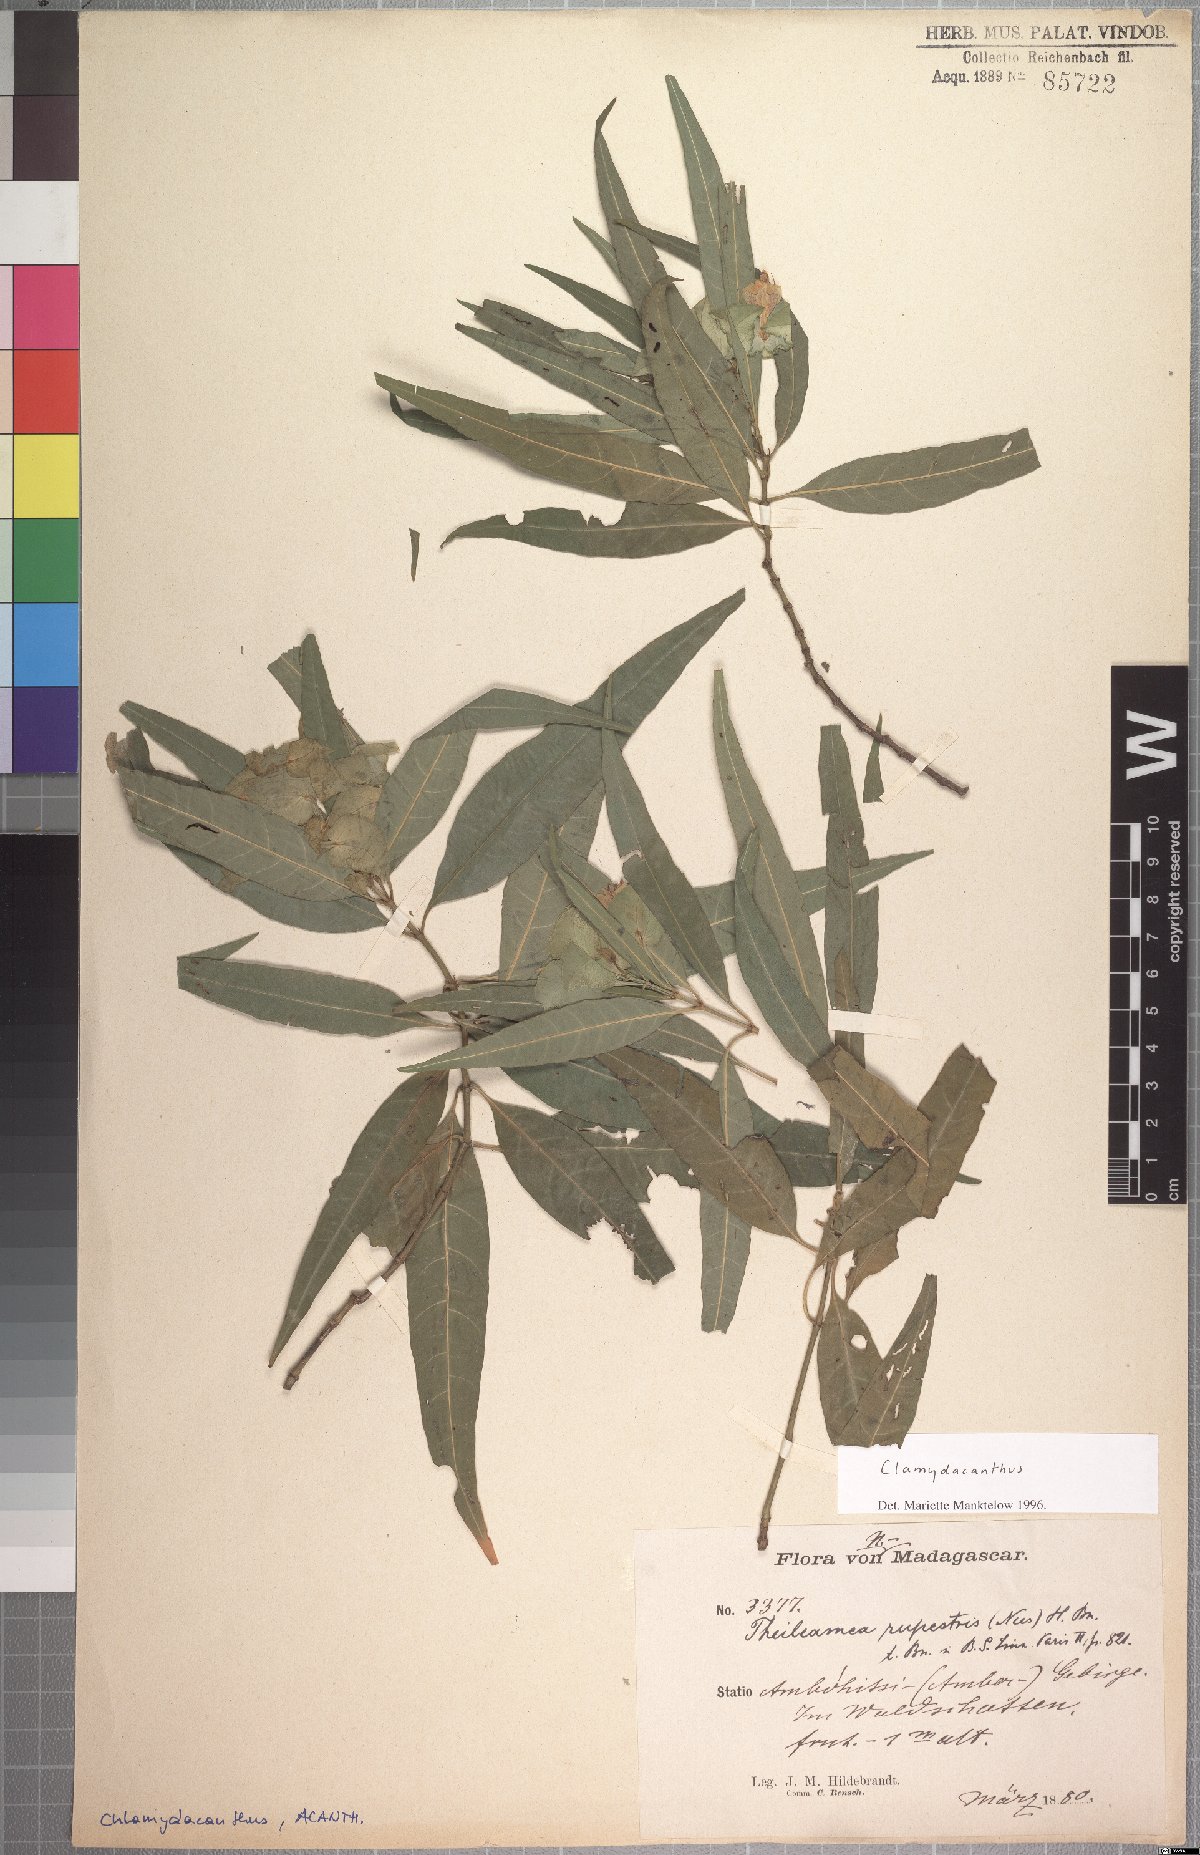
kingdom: Plantae
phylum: Tracheophyta
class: Magnoliopsida
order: Lamiales
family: Acanthaceae
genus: Chlamydacanthus
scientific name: Chlamydacanthus euphorbioides
